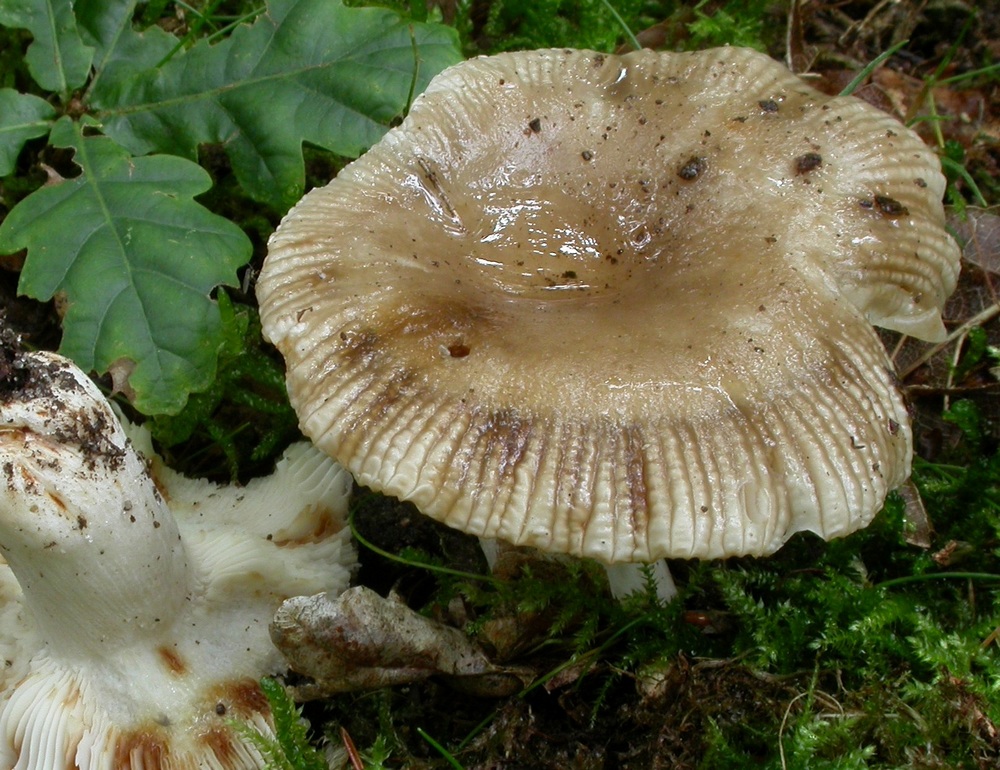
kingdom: Fungi
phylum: Basidiomycota
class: Agaricomycetes
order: Russulales
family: Russulaceae
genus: Russula
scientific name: Russula amoenolens
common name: skarp kam-skørhat
